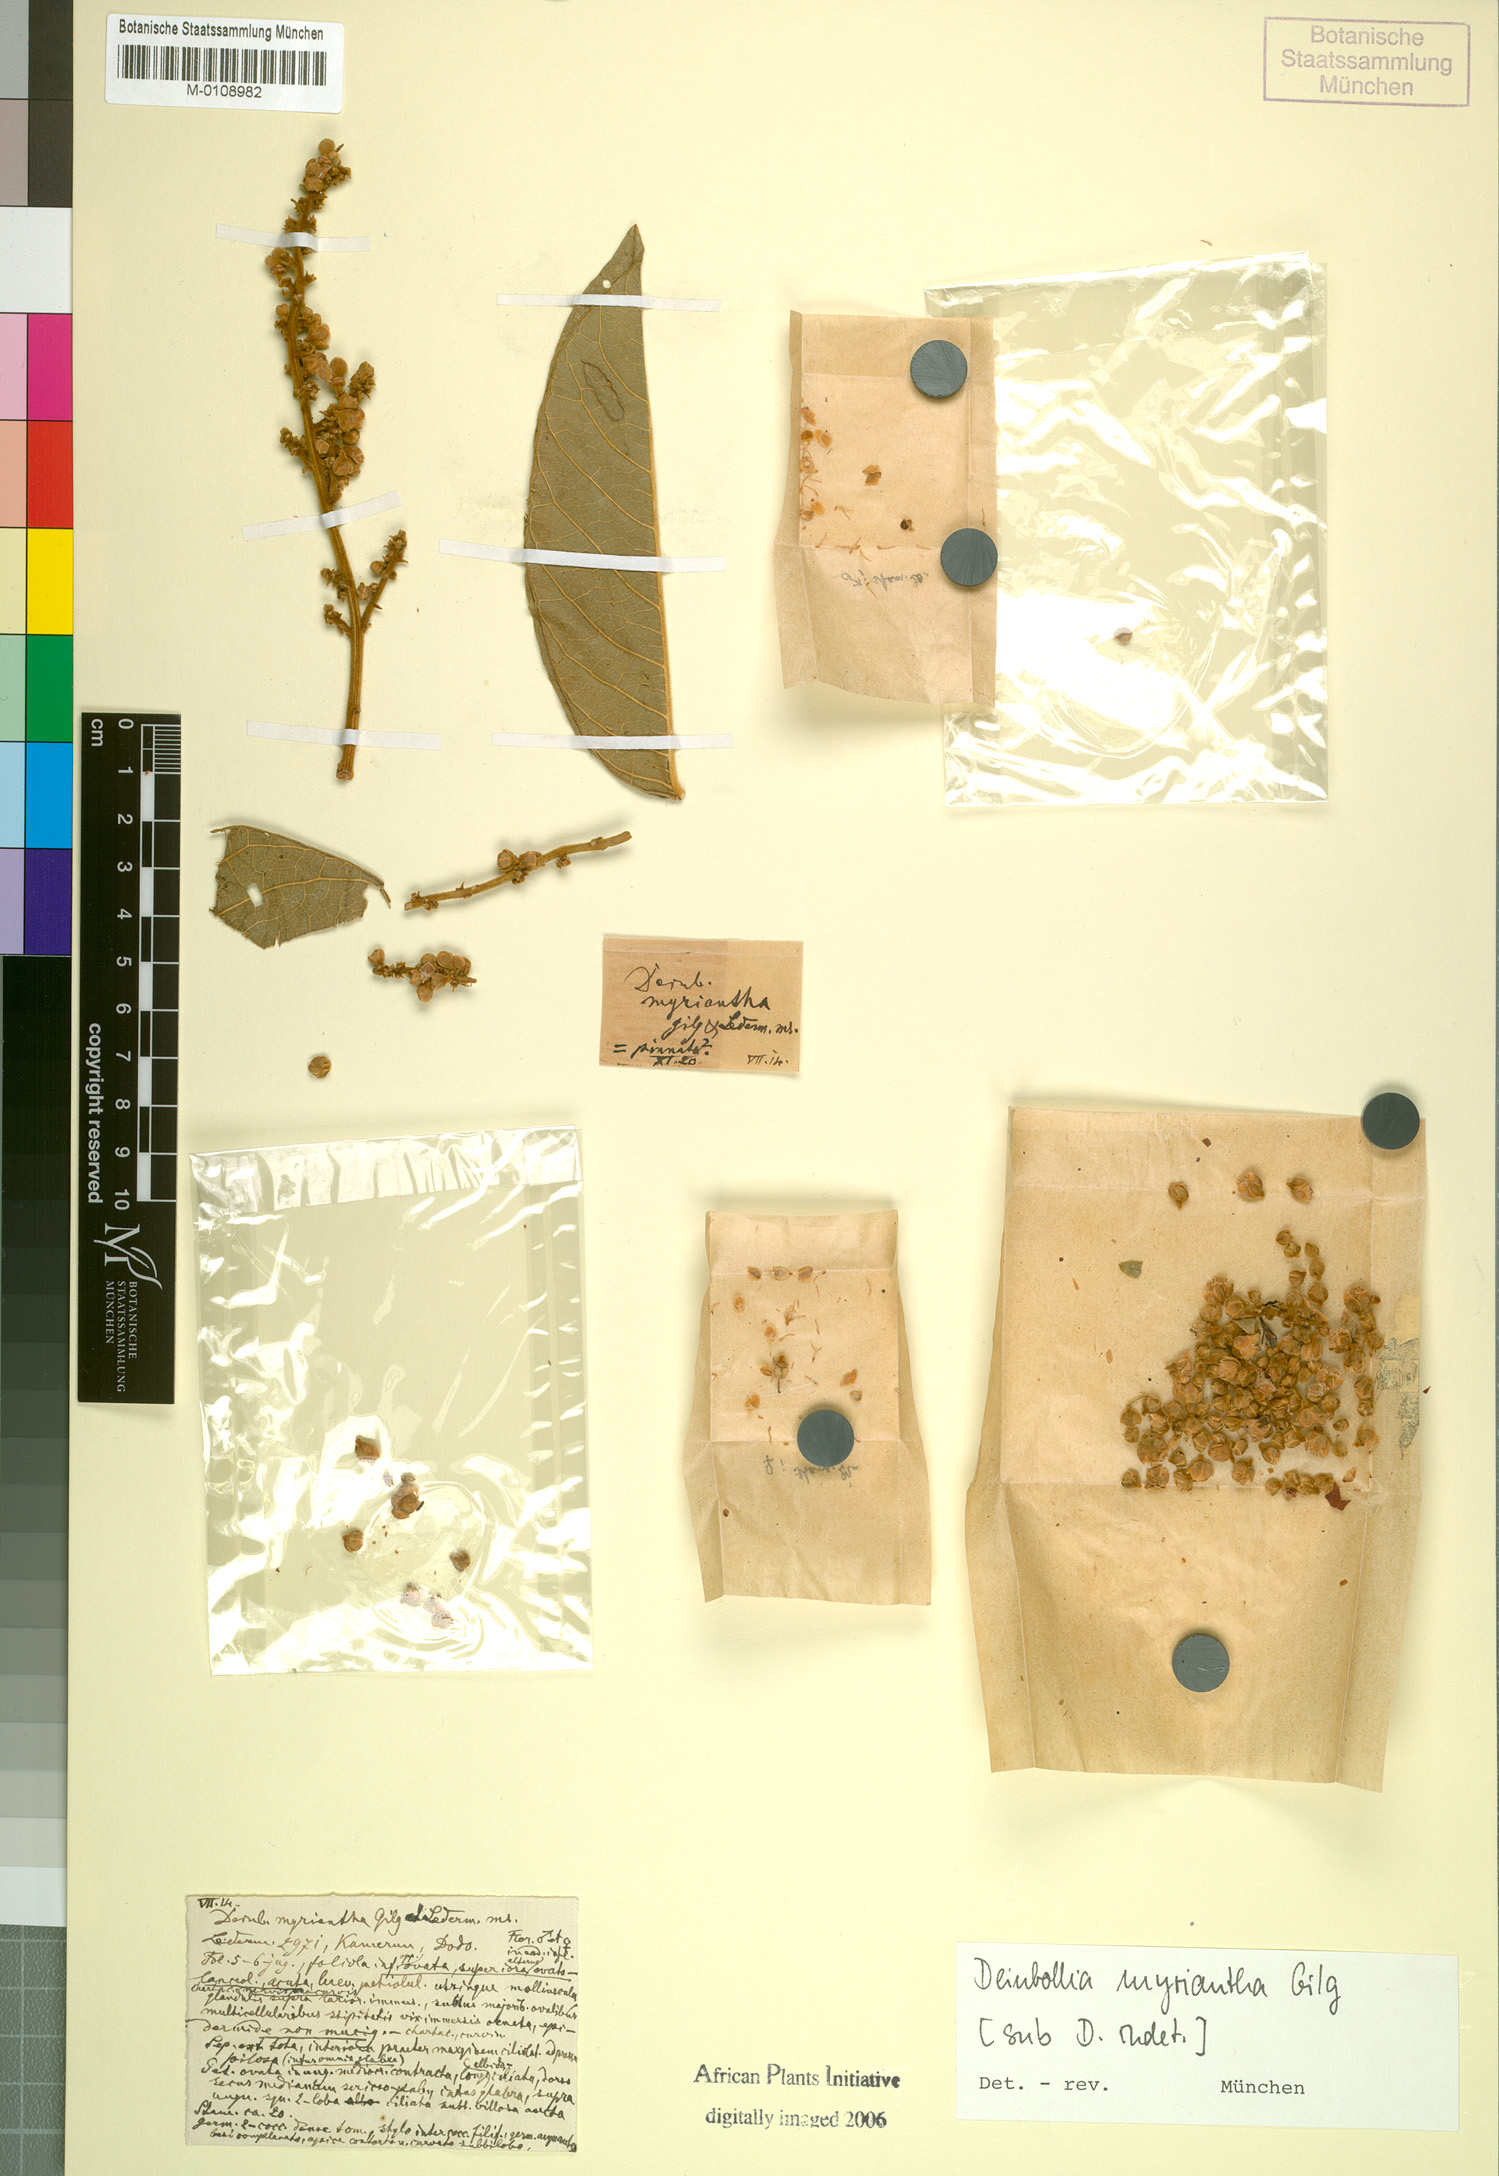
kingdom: Plantae
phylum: Tracheophyta
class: Magnoliopsida
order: Sapindales
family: Sapindaceae
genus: Deinbollia
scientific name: Deinbollia
